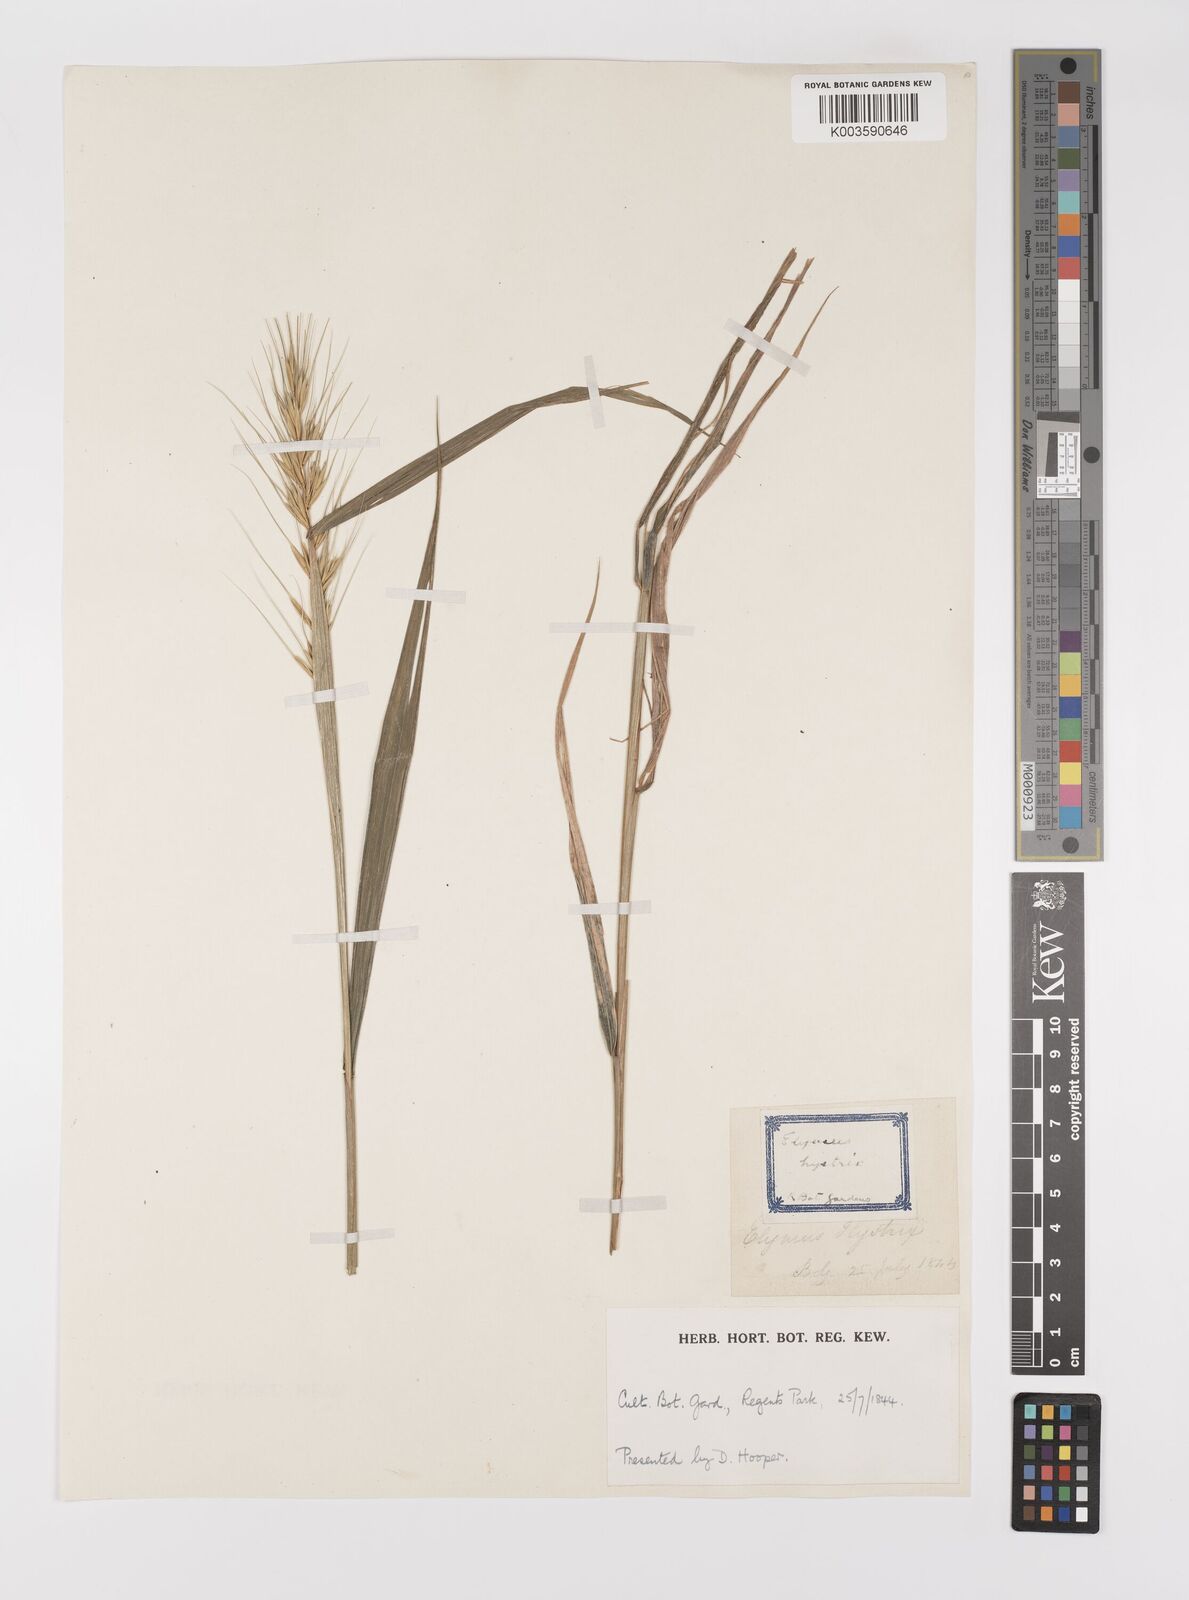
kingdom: Plantae
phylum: Tracheophyta
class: Liliopsida
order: Poales
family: Poaceae
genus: Elymus
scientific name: Elymus hystrix
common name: Bottlebrush grass
